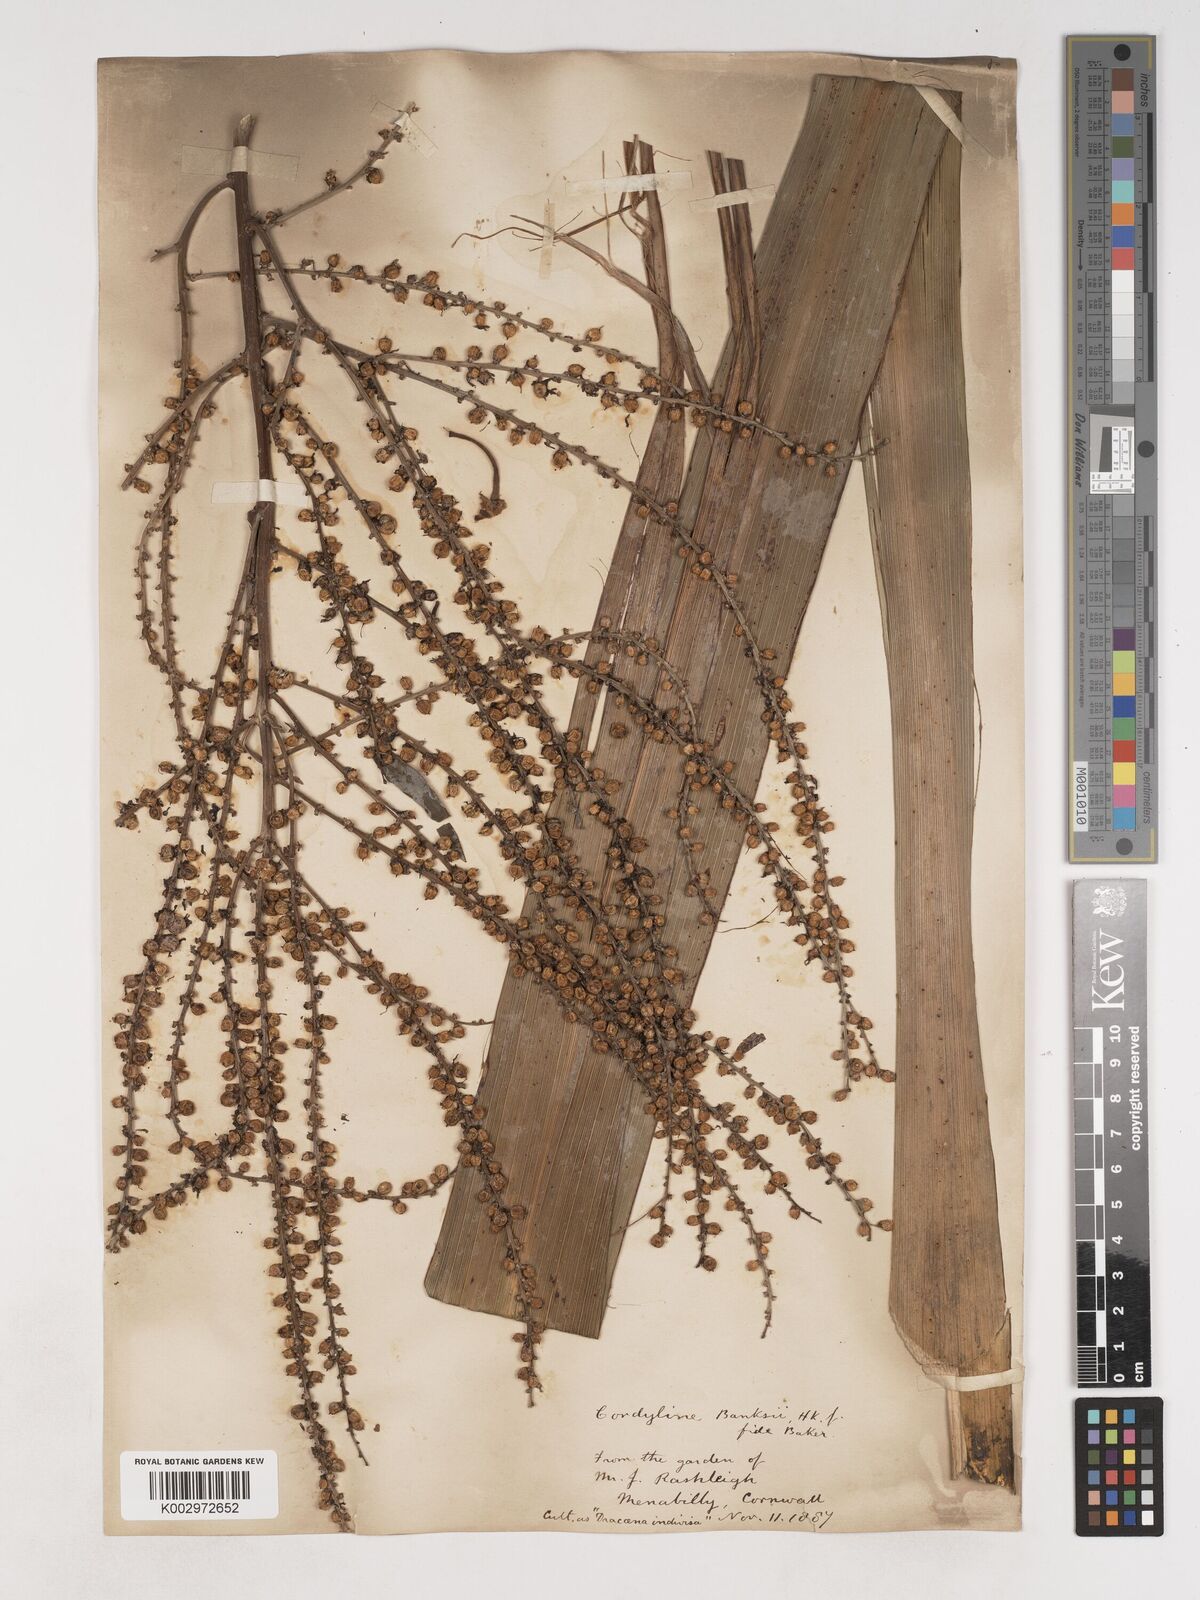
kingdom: Plantae
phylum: Tracheophyta
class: Liliopsida
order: Asparagales
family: Asparagaceae
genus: Cordyline
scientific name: Cordyline banksii
